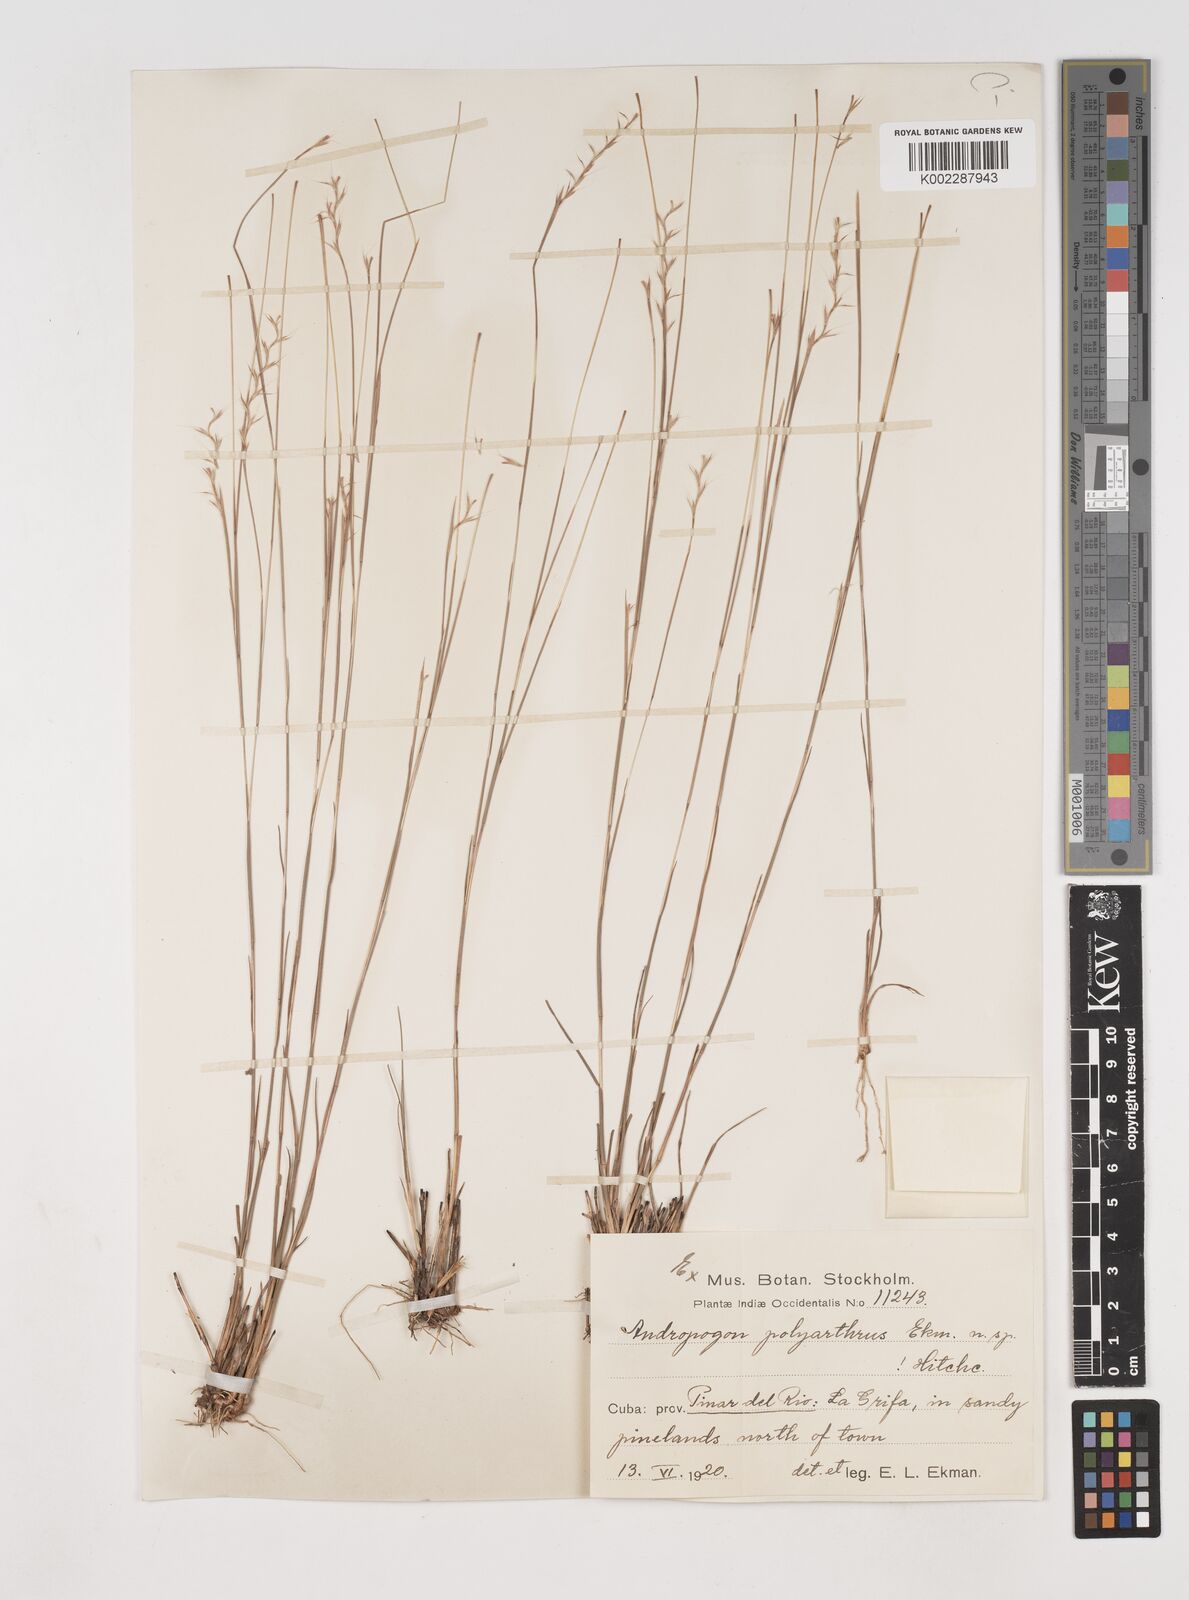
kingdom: Plantae
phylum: Tracheophyta
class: Liliopsida
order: Poales
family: Poaceae
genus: Schizachyrium
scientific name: Schizachyrium cubense
